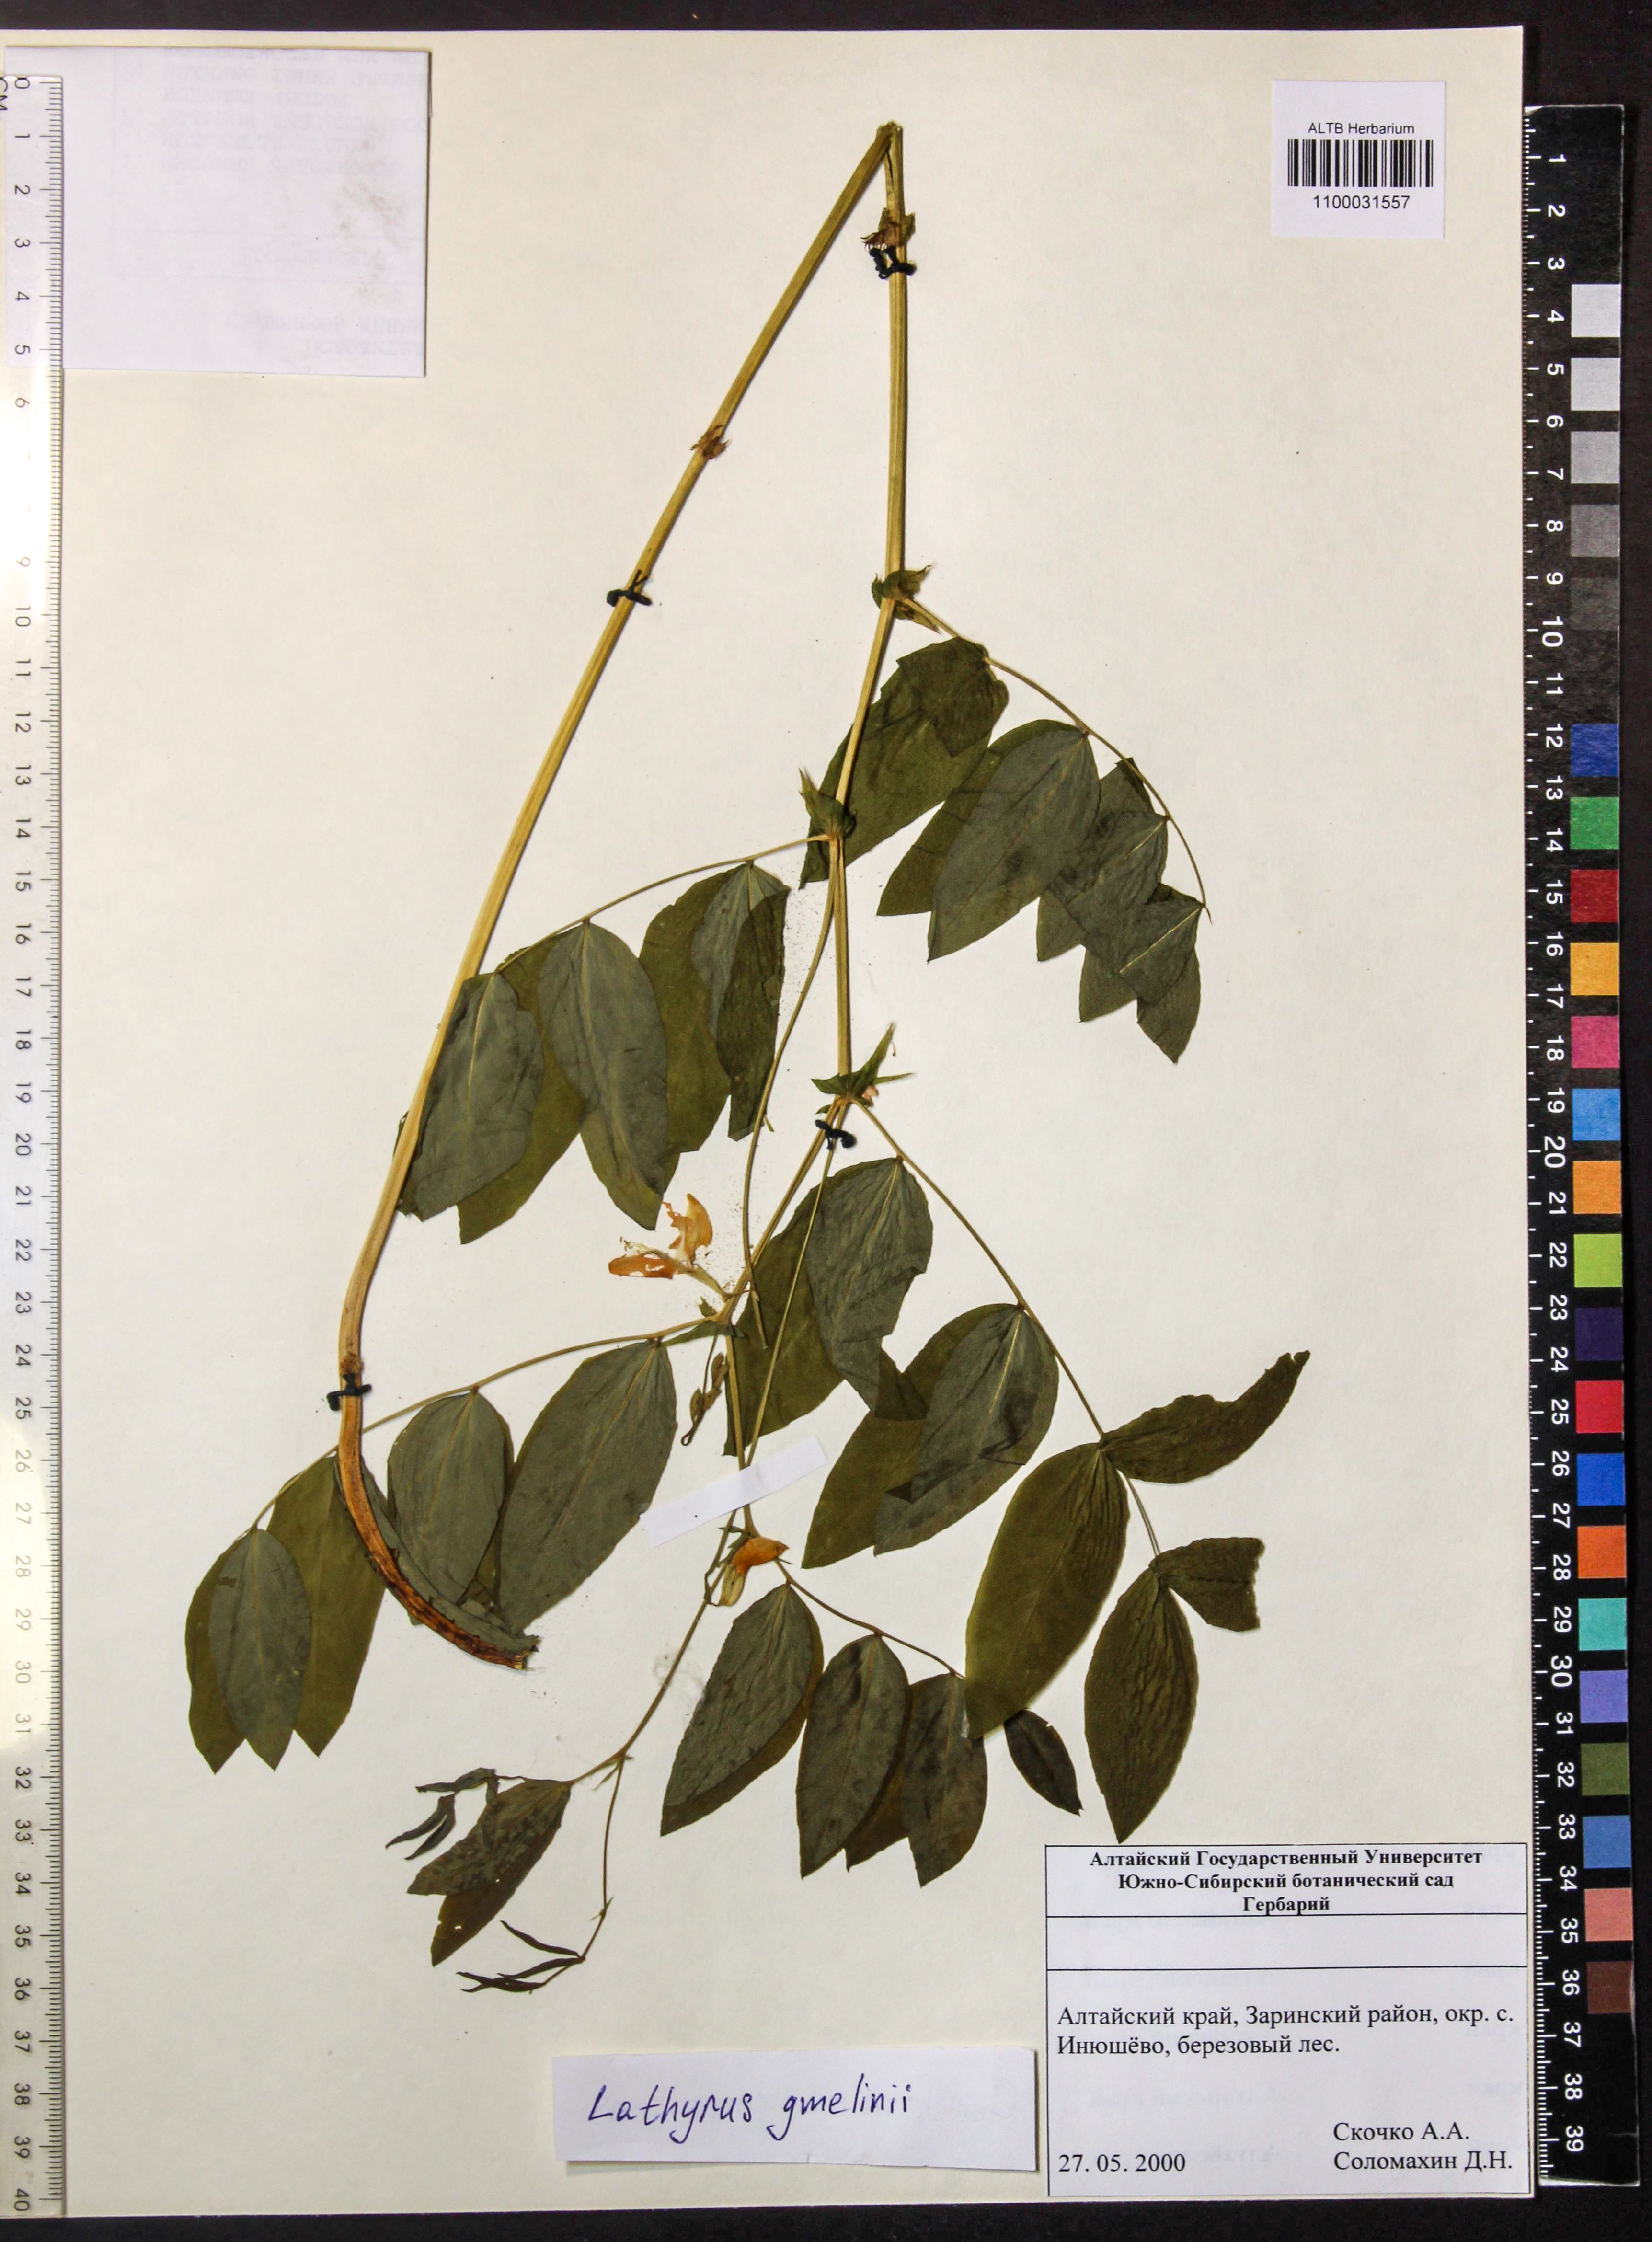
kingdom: Plantae
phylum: Tracheophyta
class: Magnoliopsida
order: Fabales
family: Fabaceae
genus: Lathyrus
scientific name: Lathyrus gmelinii
